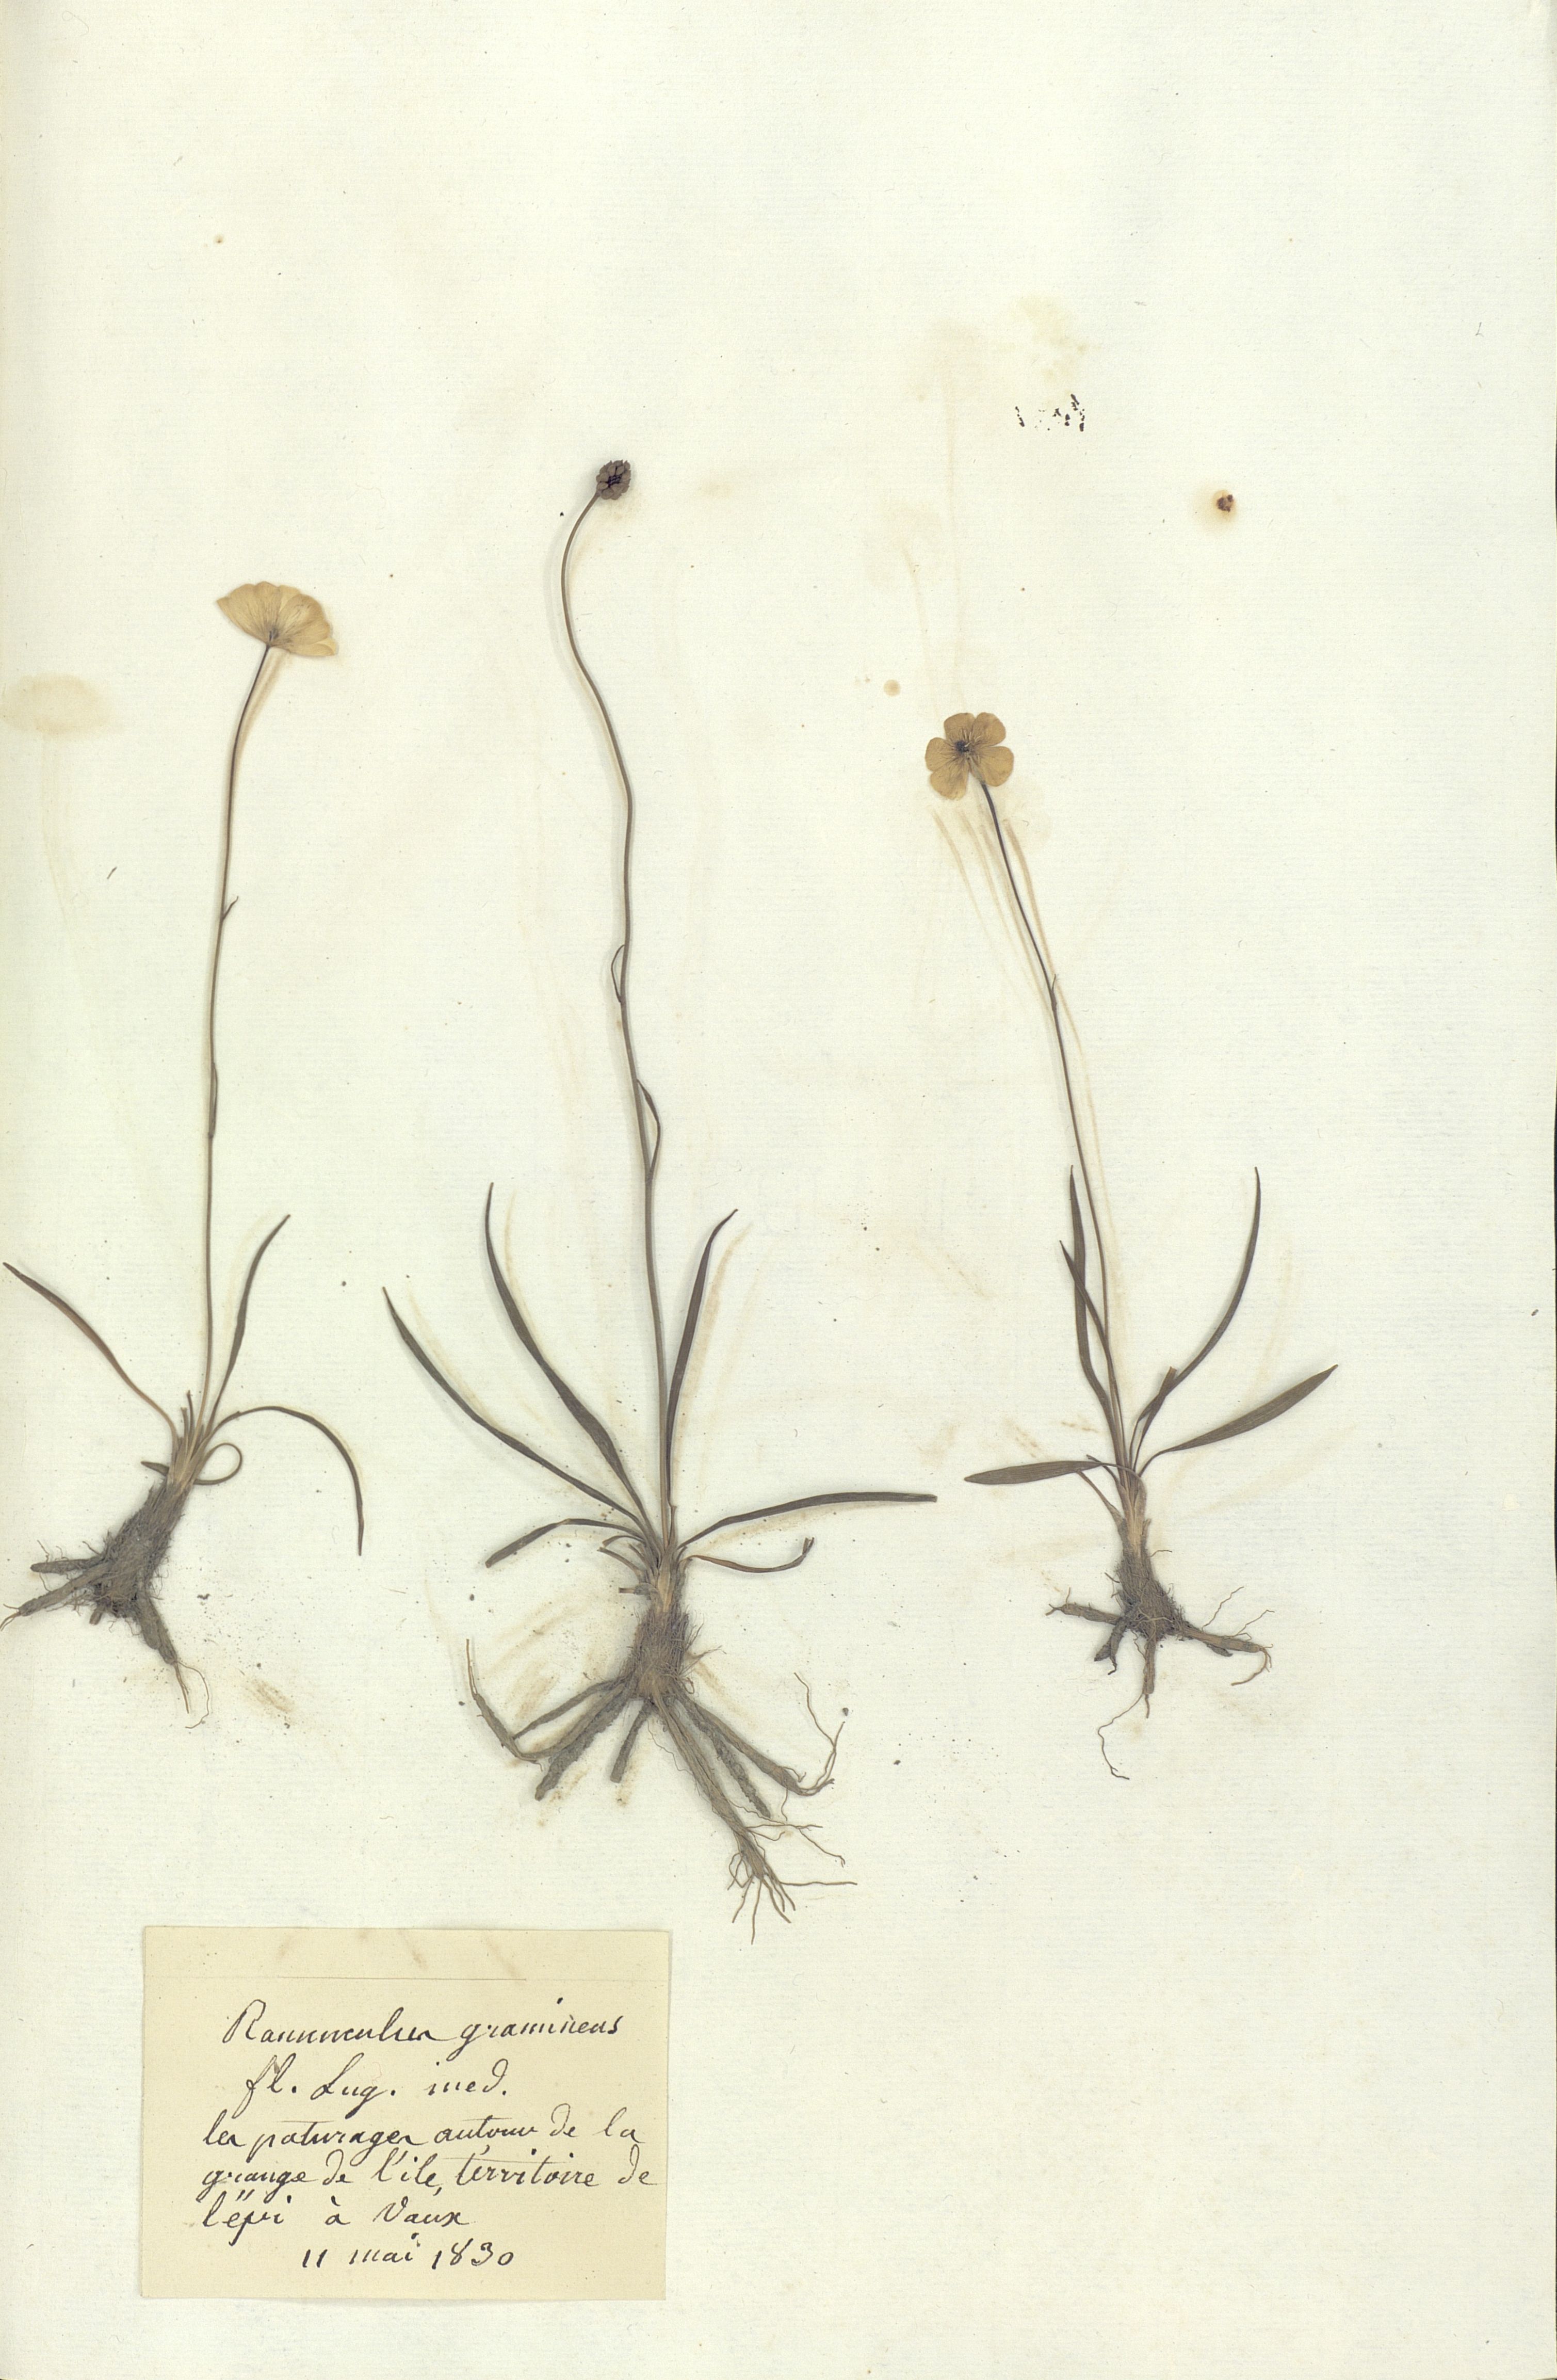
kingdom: Plantae
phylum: Tracheophyta
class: Magnoliopsida
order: Ranunculales
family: Ranunculaceae
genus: Ranunculus
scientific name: Ranunculus gramineus
